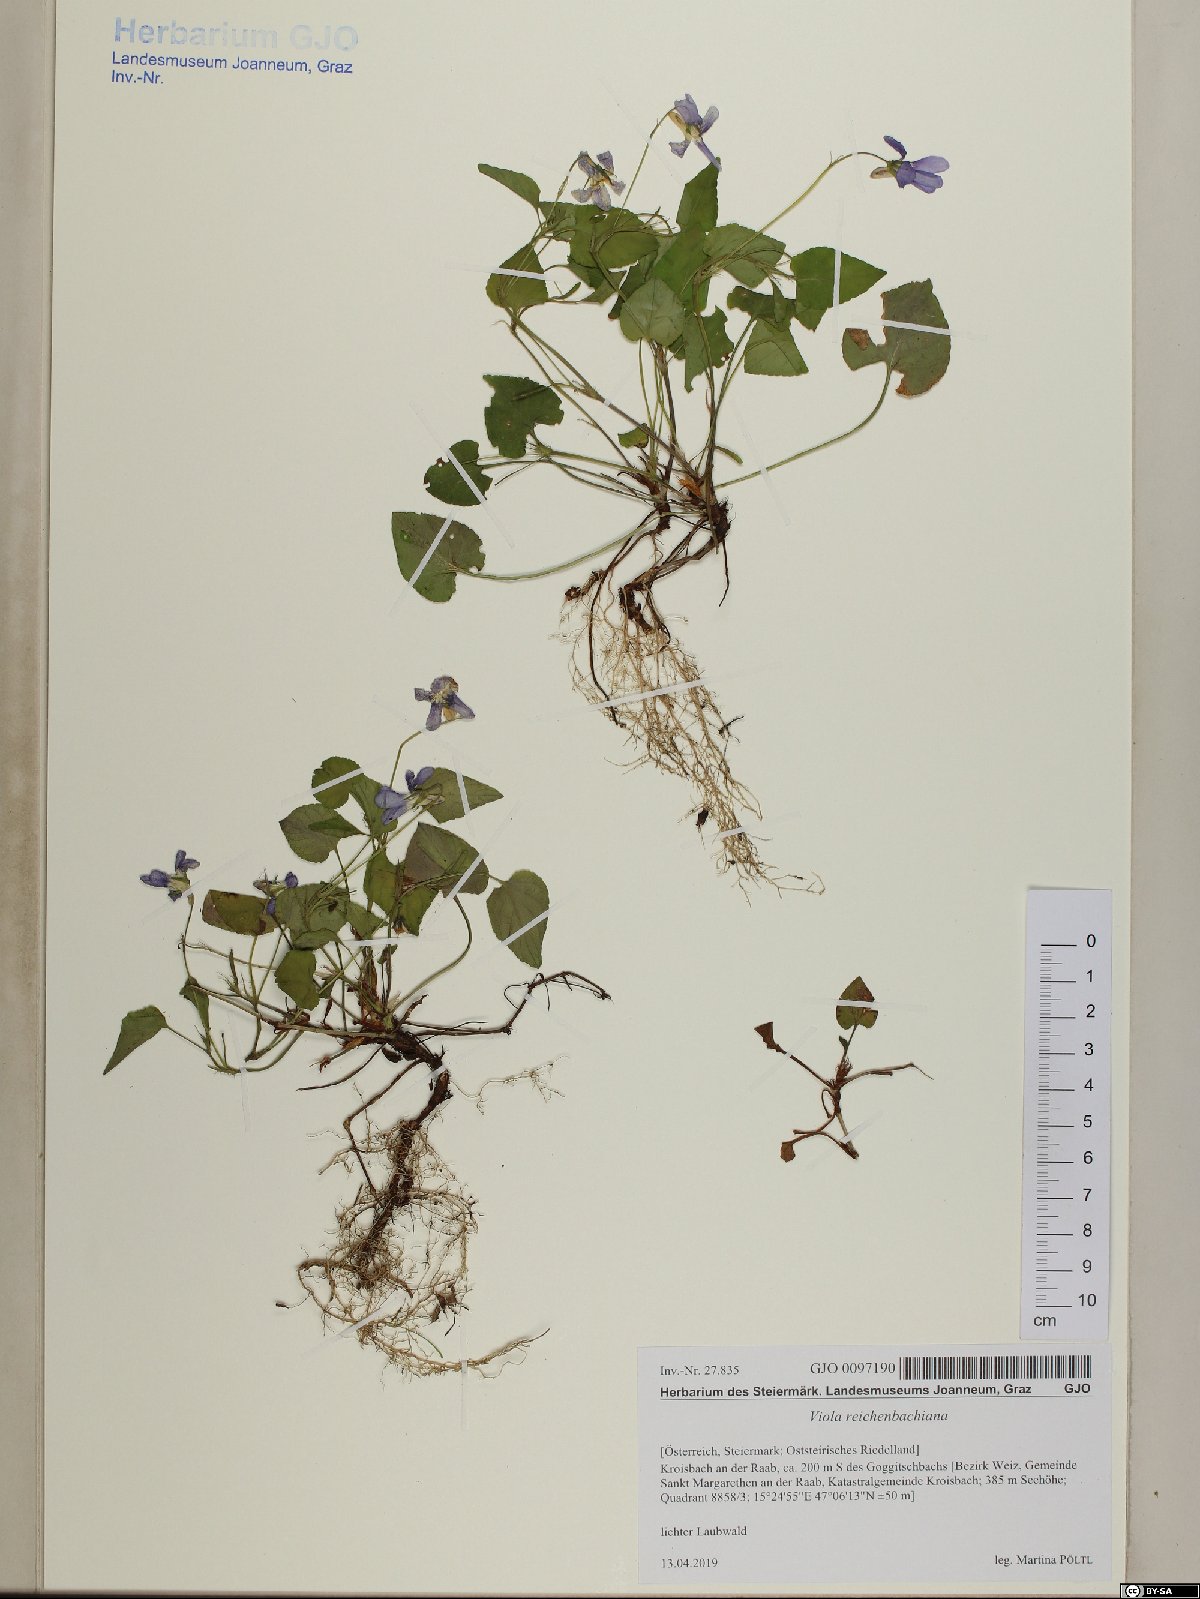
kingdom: Plantae
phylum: Tracheophyta
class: Magnoliopsida
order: Malpighiales
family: Violaceae
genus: Viola
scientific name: Viola reichenbachiana
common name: Early dog-violet
